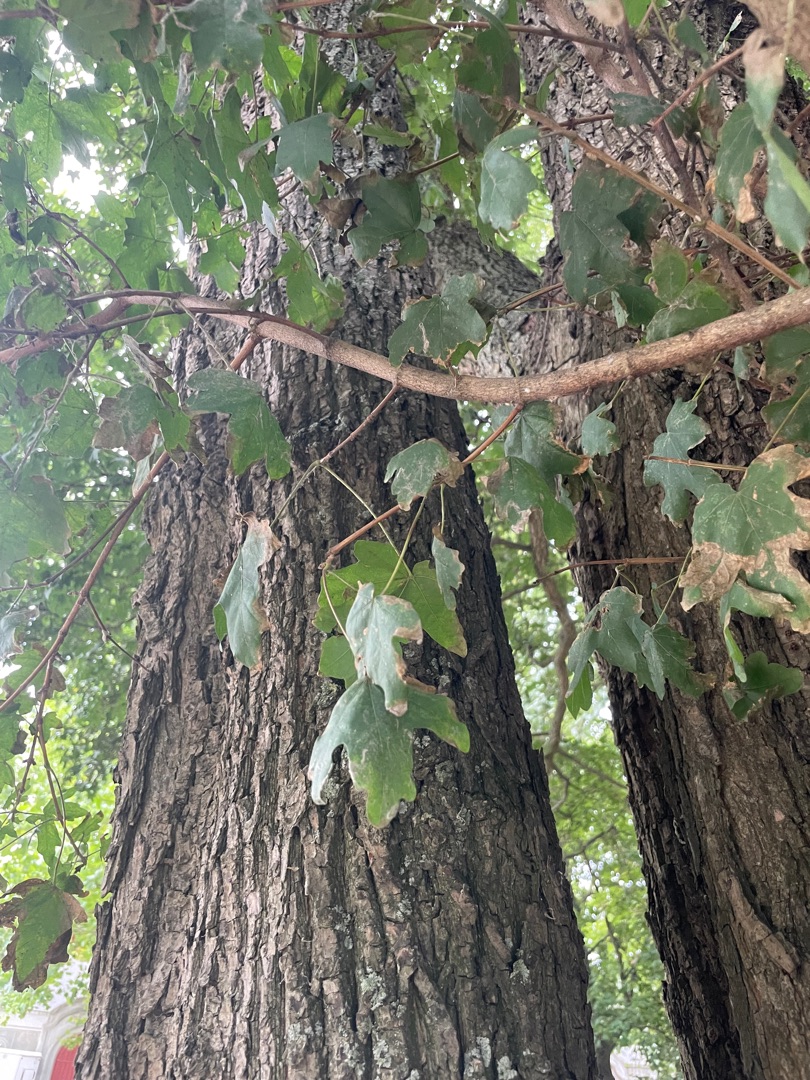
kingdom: Plantae
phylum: Tracheophyta
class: Magnoliopsida
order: Sapindales
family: Sapindaceae
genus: Acer
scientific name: Acer campestre
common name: Navr
